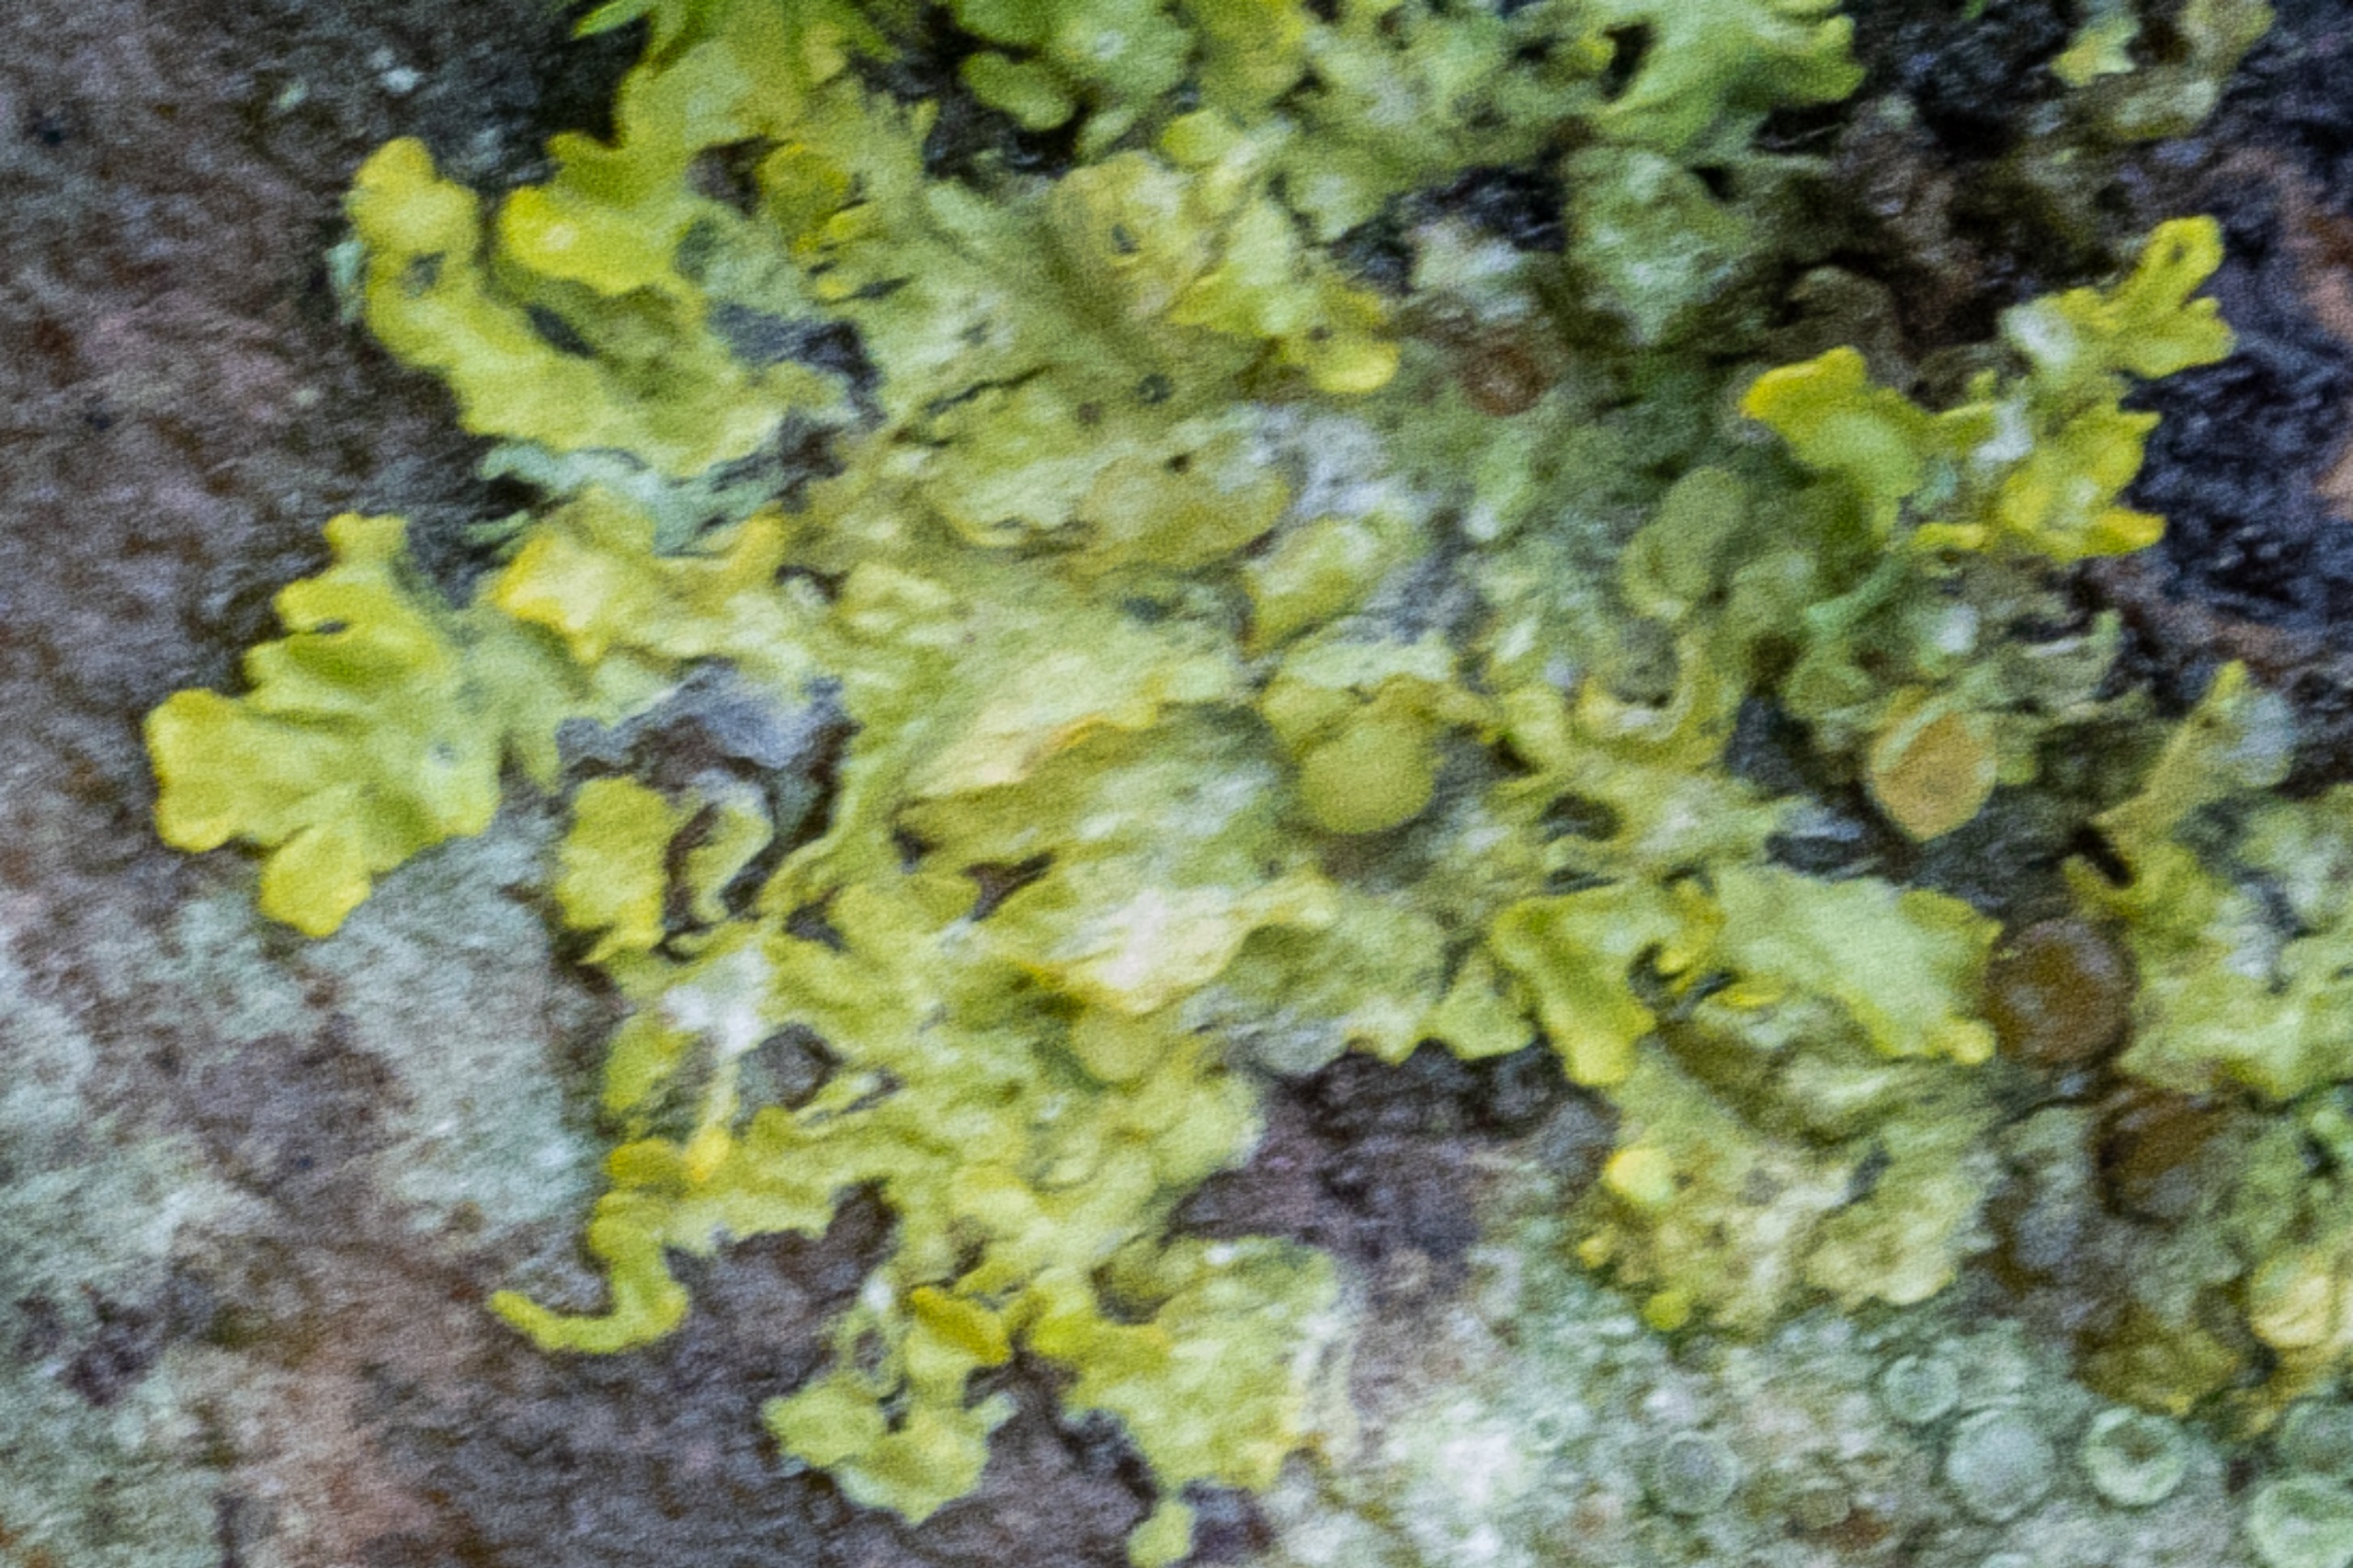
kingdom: Fungi
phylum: Ascomycota
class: Lecanoromycetes
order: Teloschistales
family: Teloschistaceae
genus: Xanthoria
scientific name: Xanthoria parietina
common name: Almindelig væggelav
